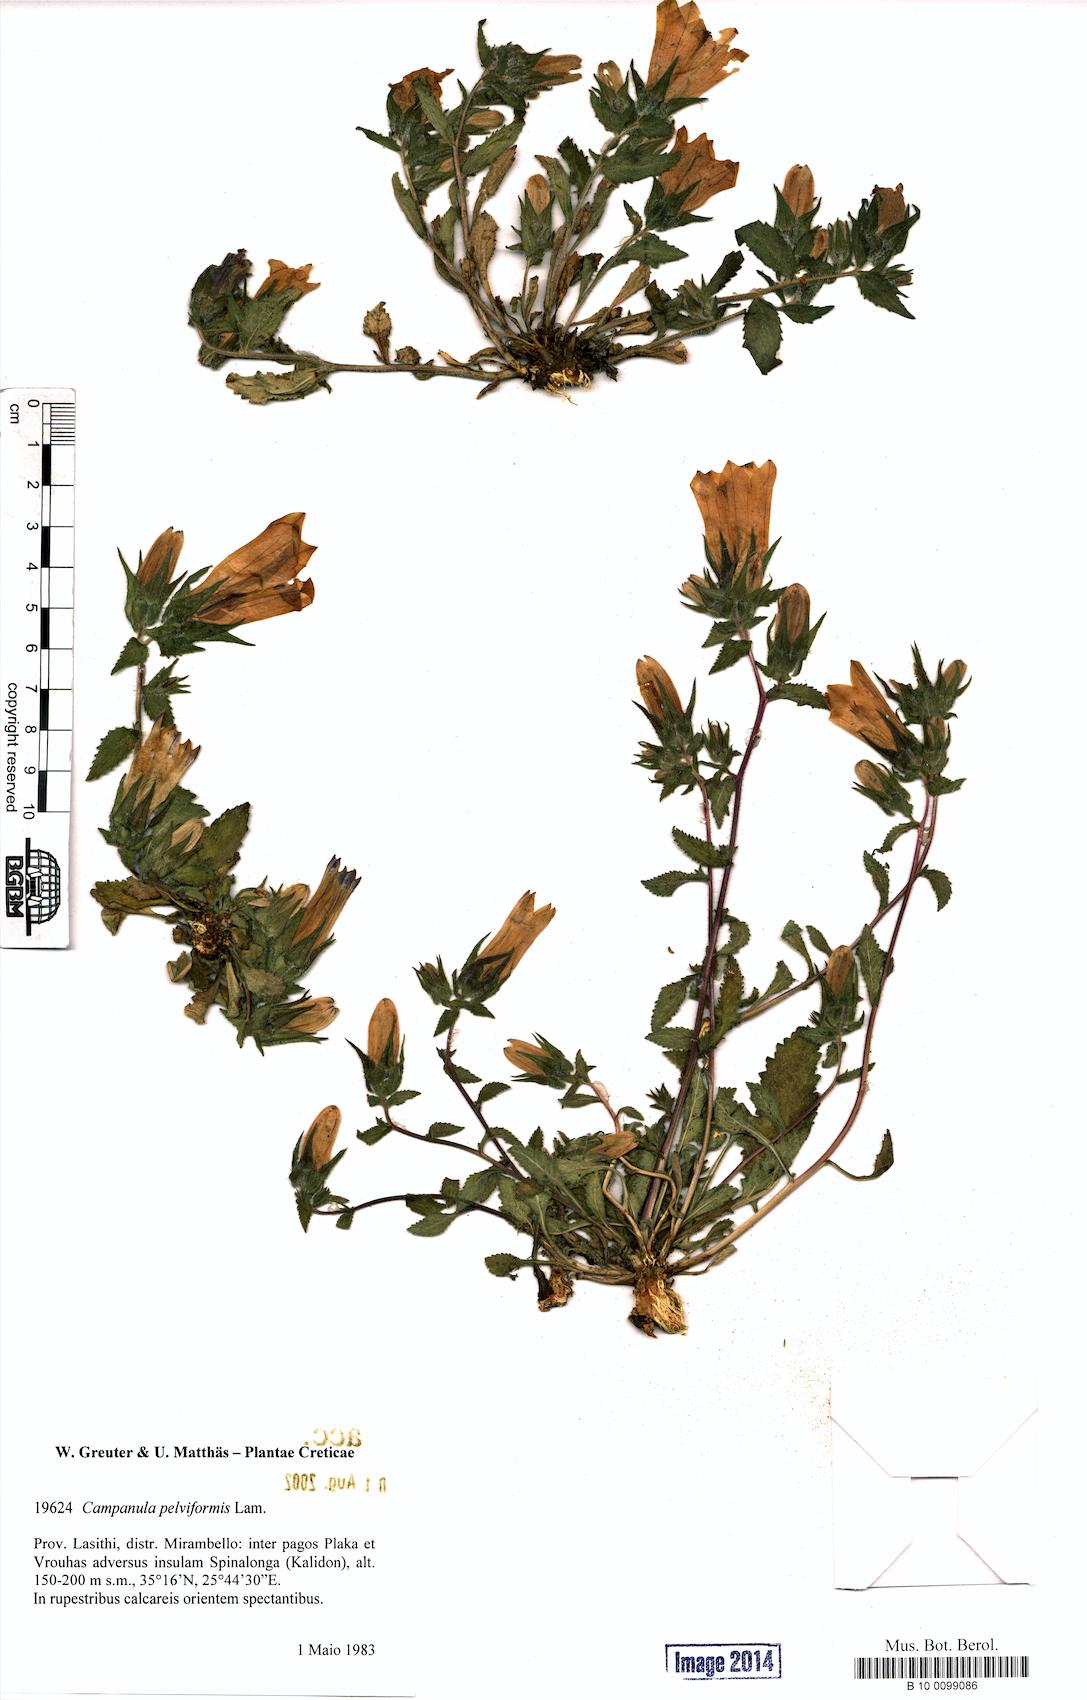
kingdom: Plantae
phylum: Tracheophyta
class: Magnoliopsida
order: Asterales
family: Campanulaceae
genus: Campanula
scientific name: Campanula pelviformis
